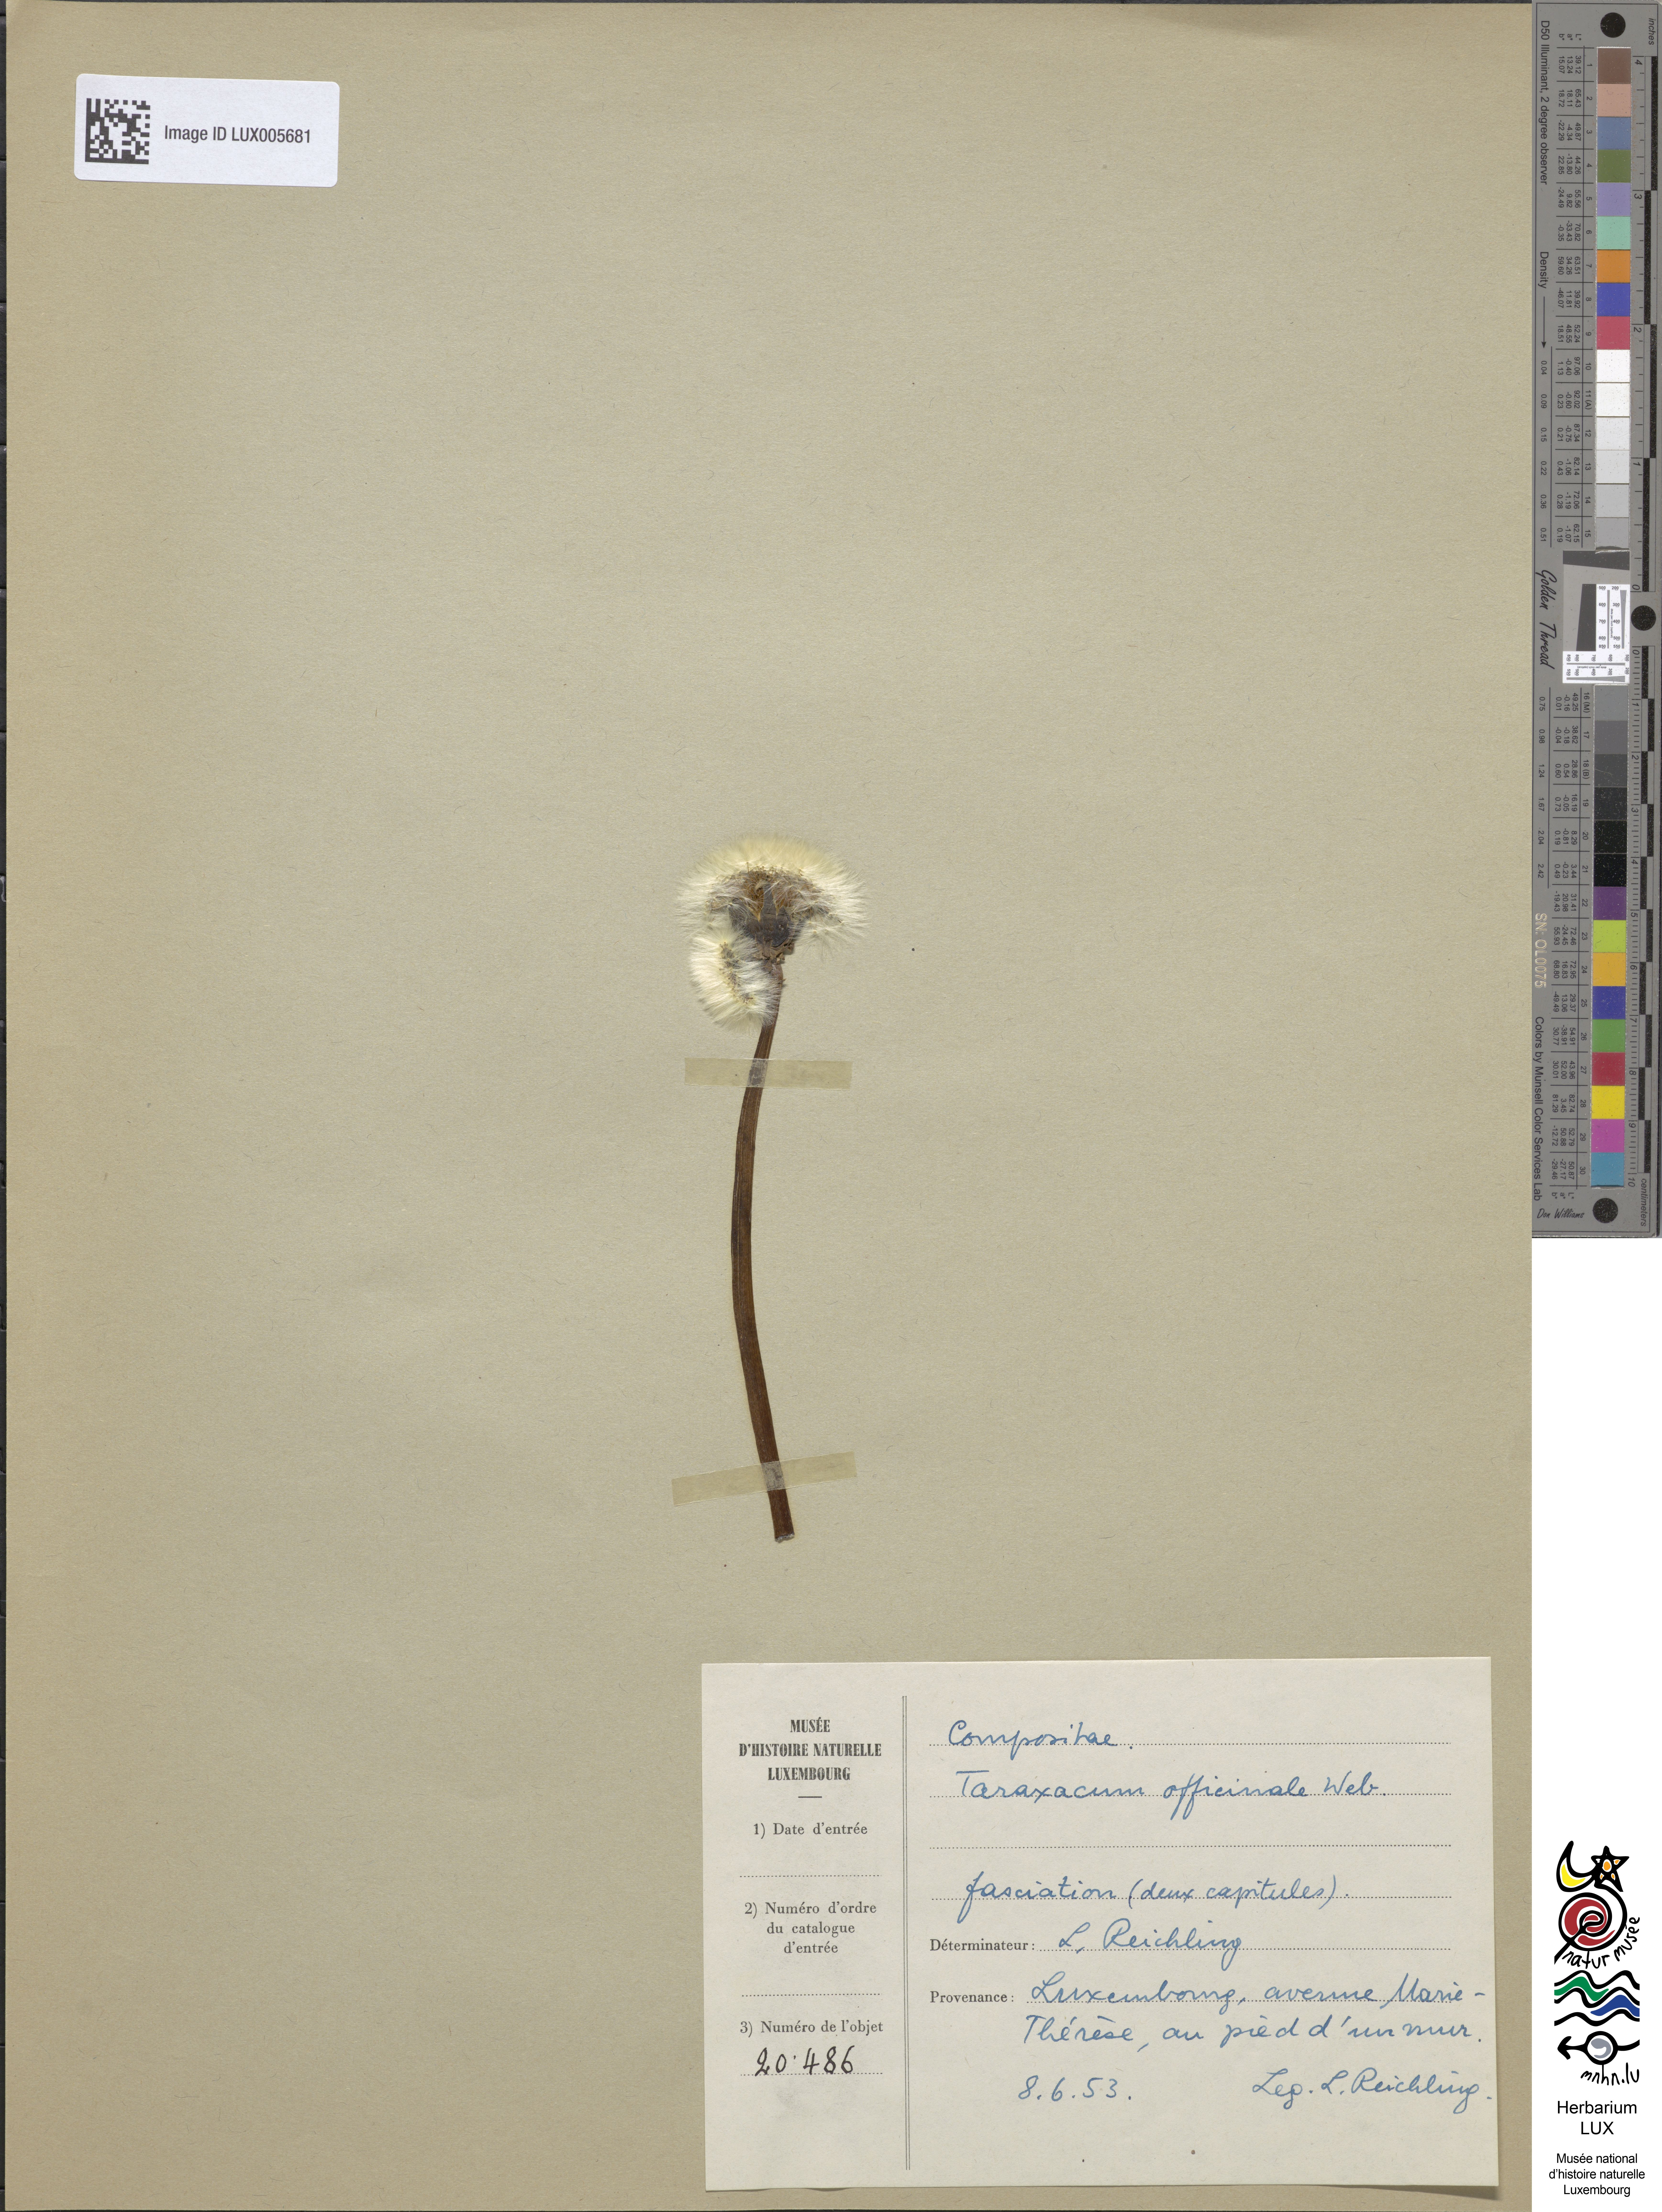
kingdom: Plantae
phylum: Tracheophyta
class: Magnoliopsida
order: Asterales
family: Asteraceae
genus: Taraxacum
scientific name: Taraxacum
